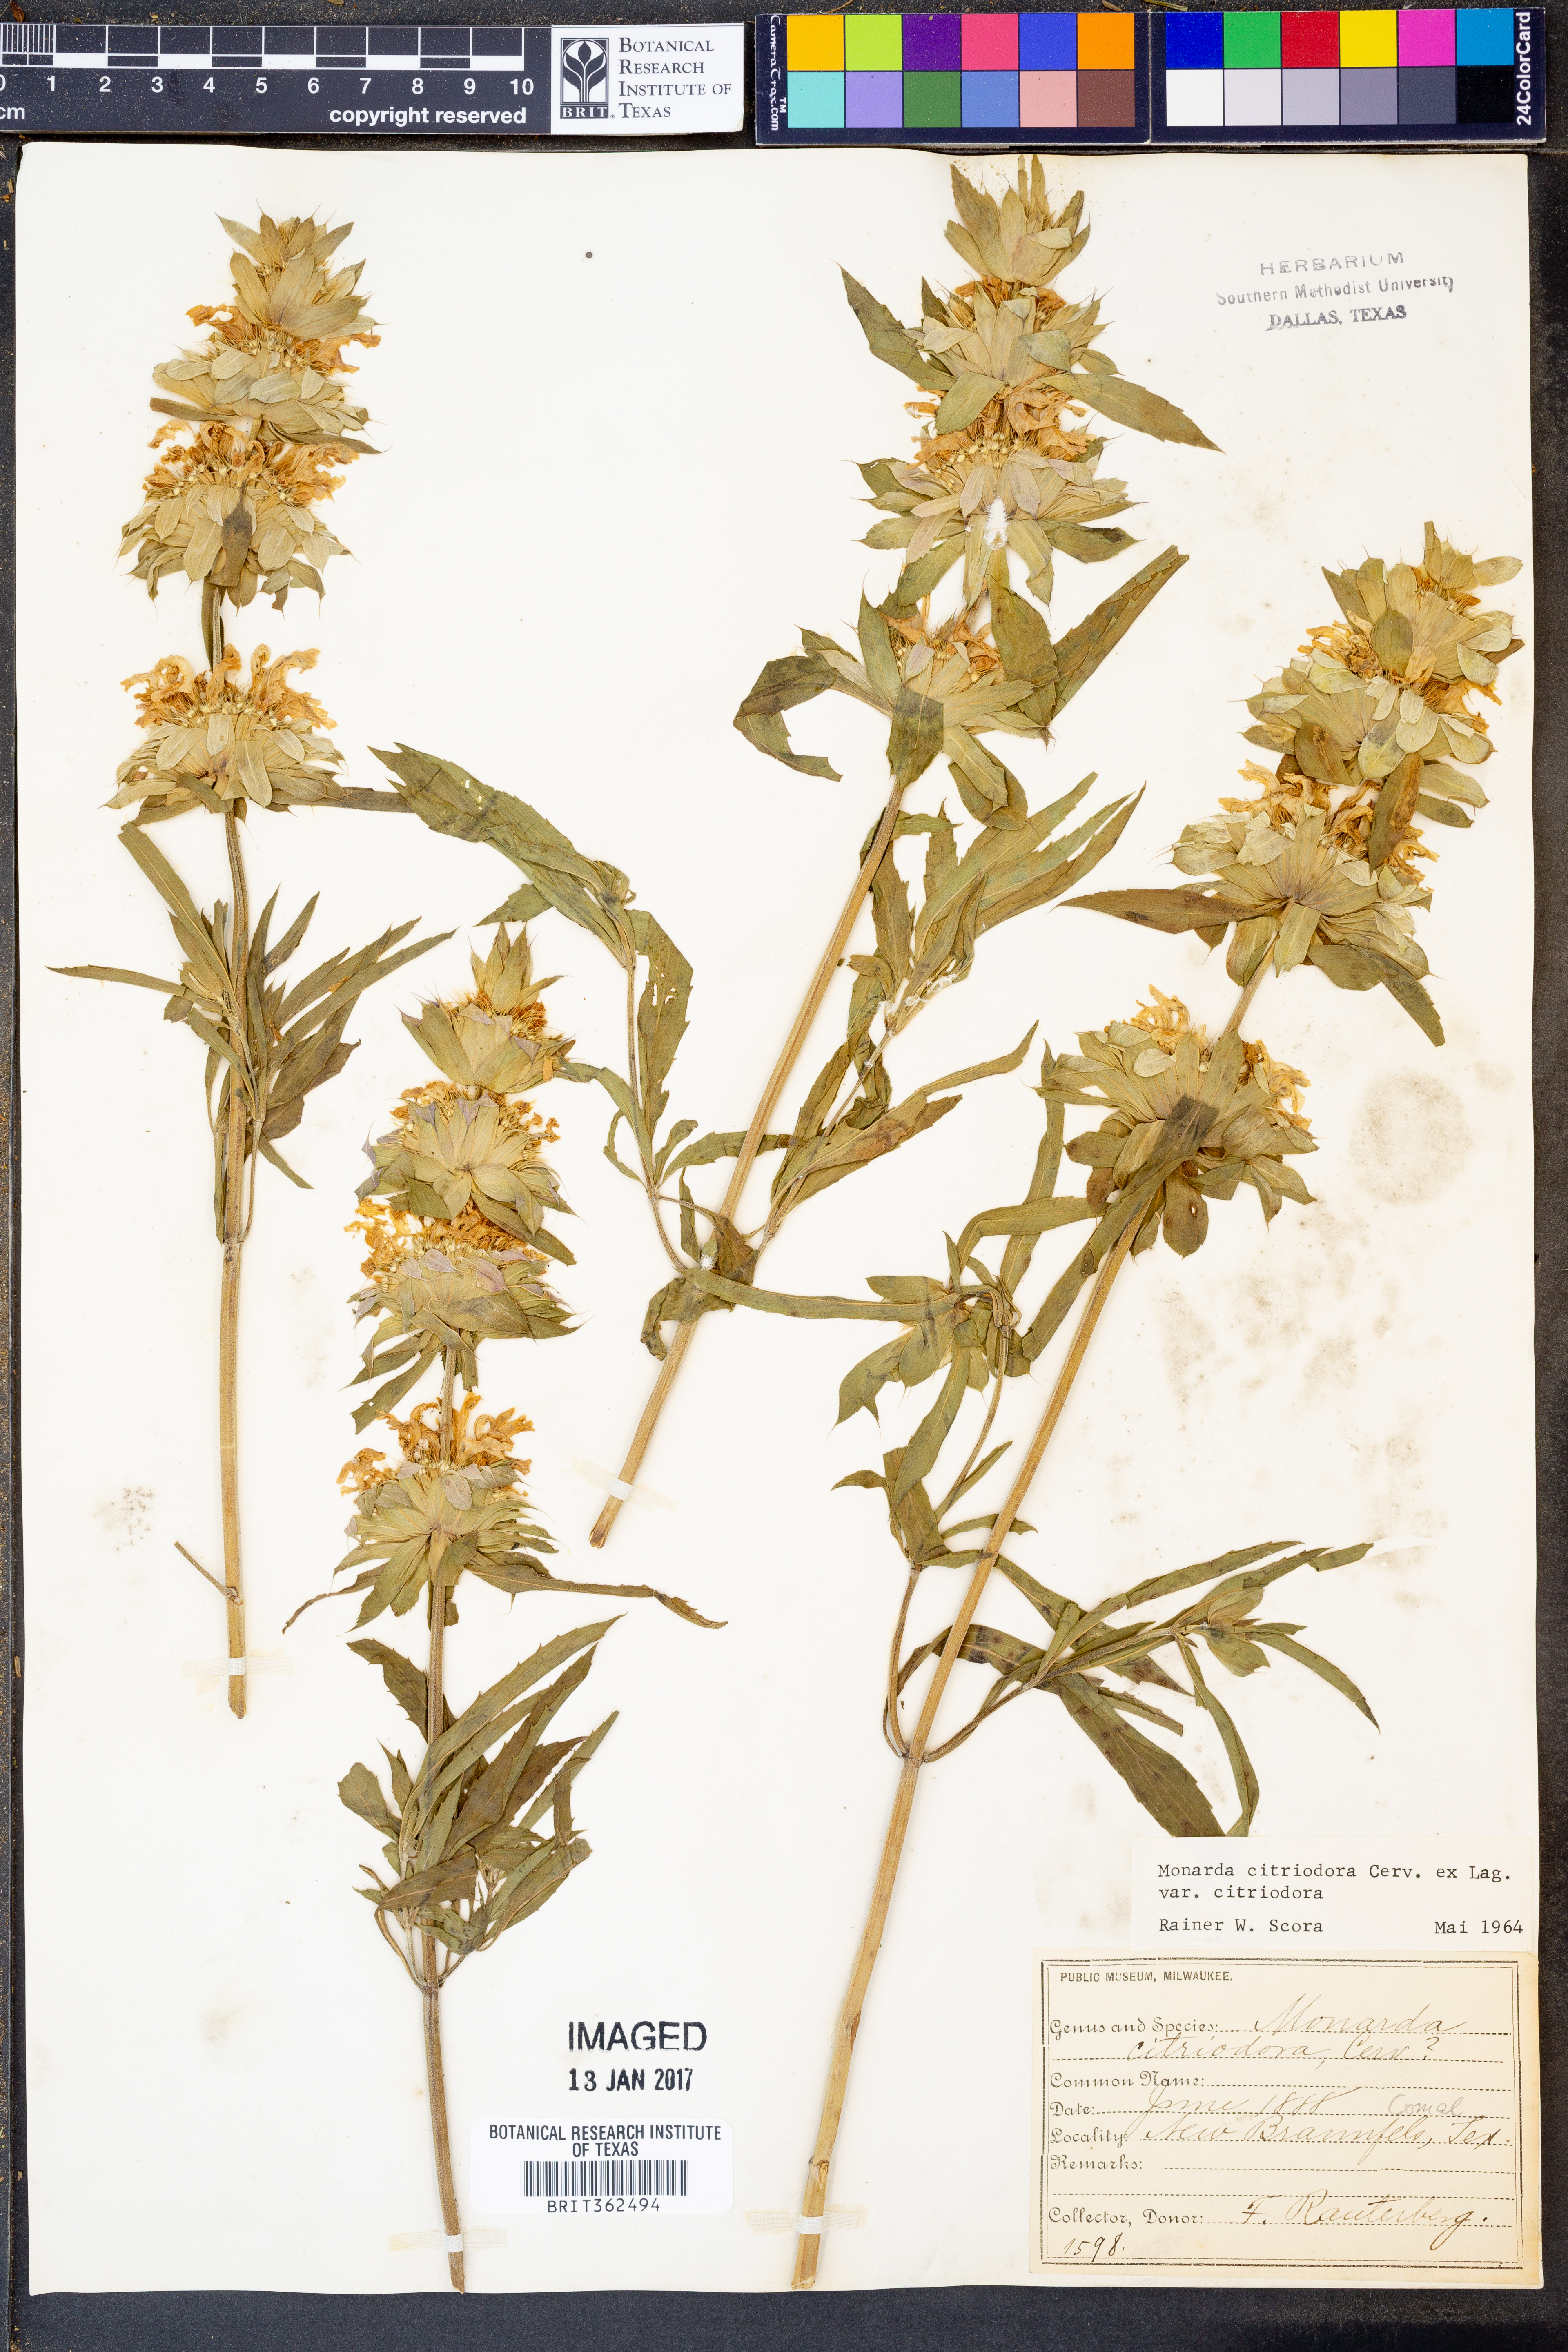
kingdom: Plantae
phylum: Tracheophyta
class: Magnoliopsida
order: Lamiales
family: Lamiaceae
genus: Monarda
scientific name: Monarda citriodora
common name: Lemon beebalm
